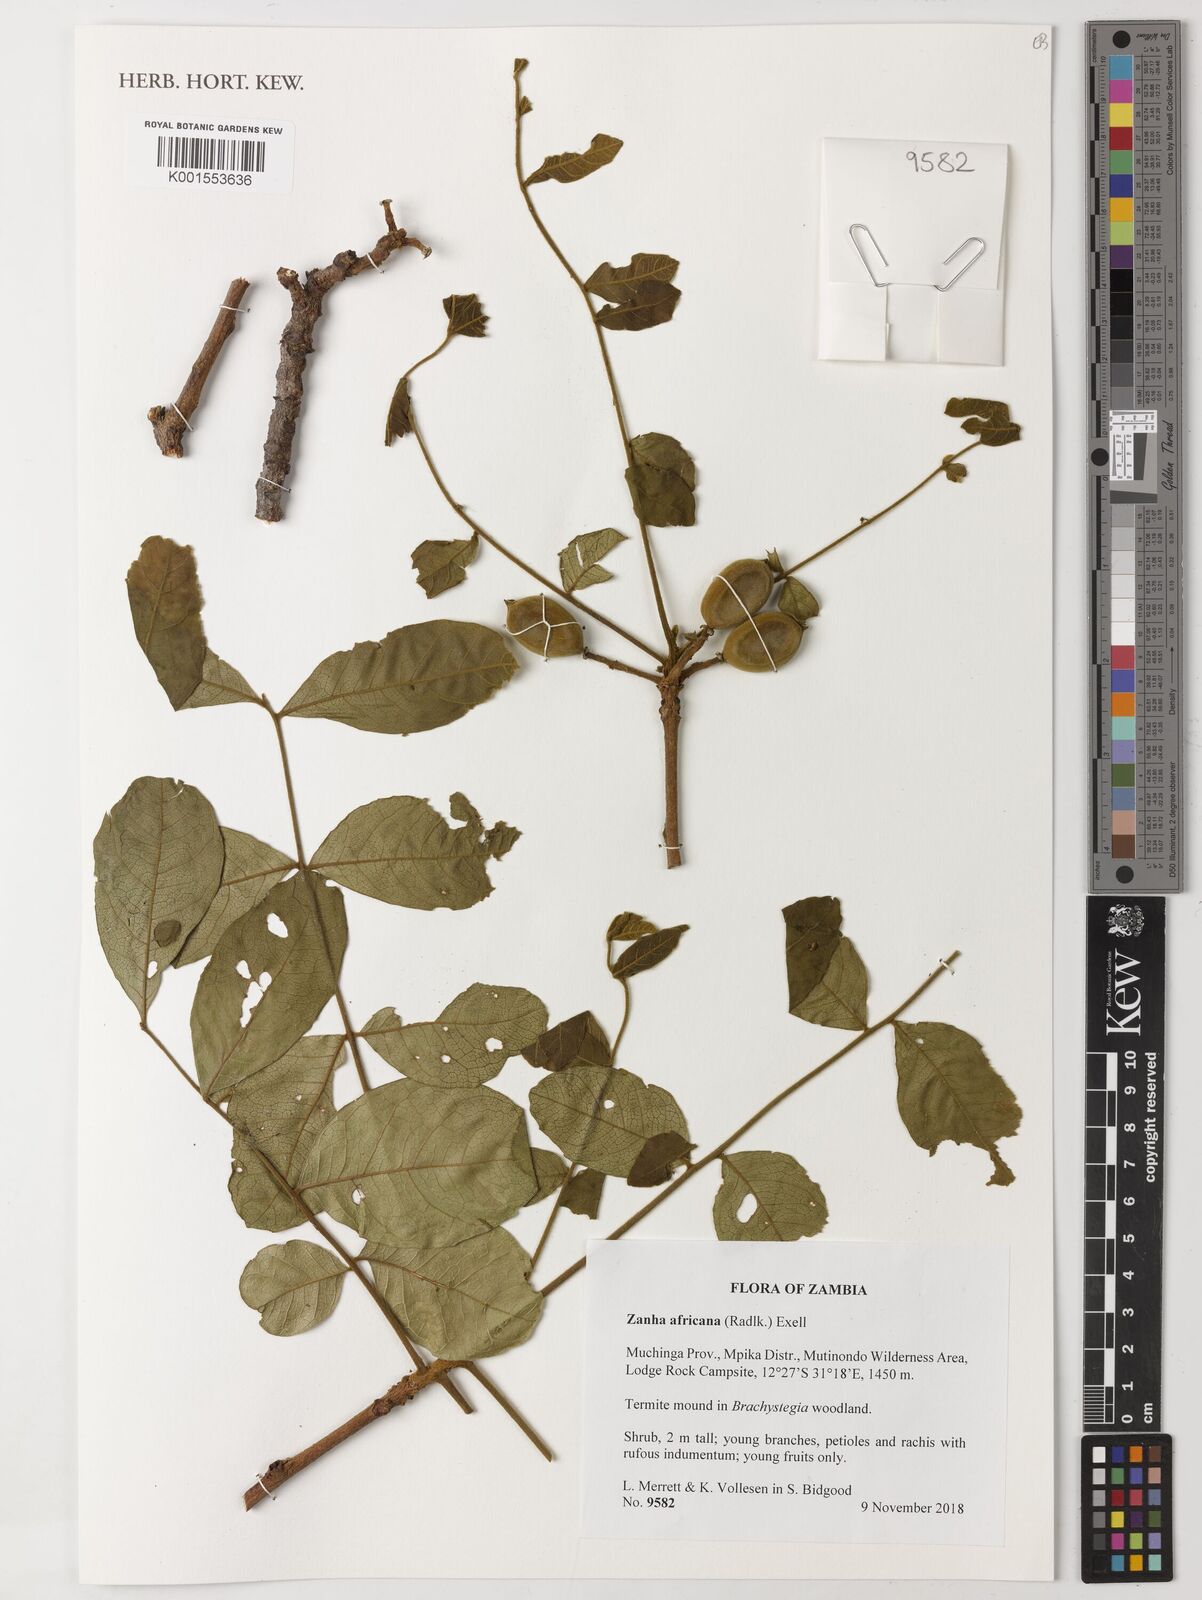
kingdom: Plantae
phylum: Tracheophyta
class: Magnoliopsida
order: Sapindales
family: Sapindaceae
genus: Zanha
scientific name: Zanha africana
